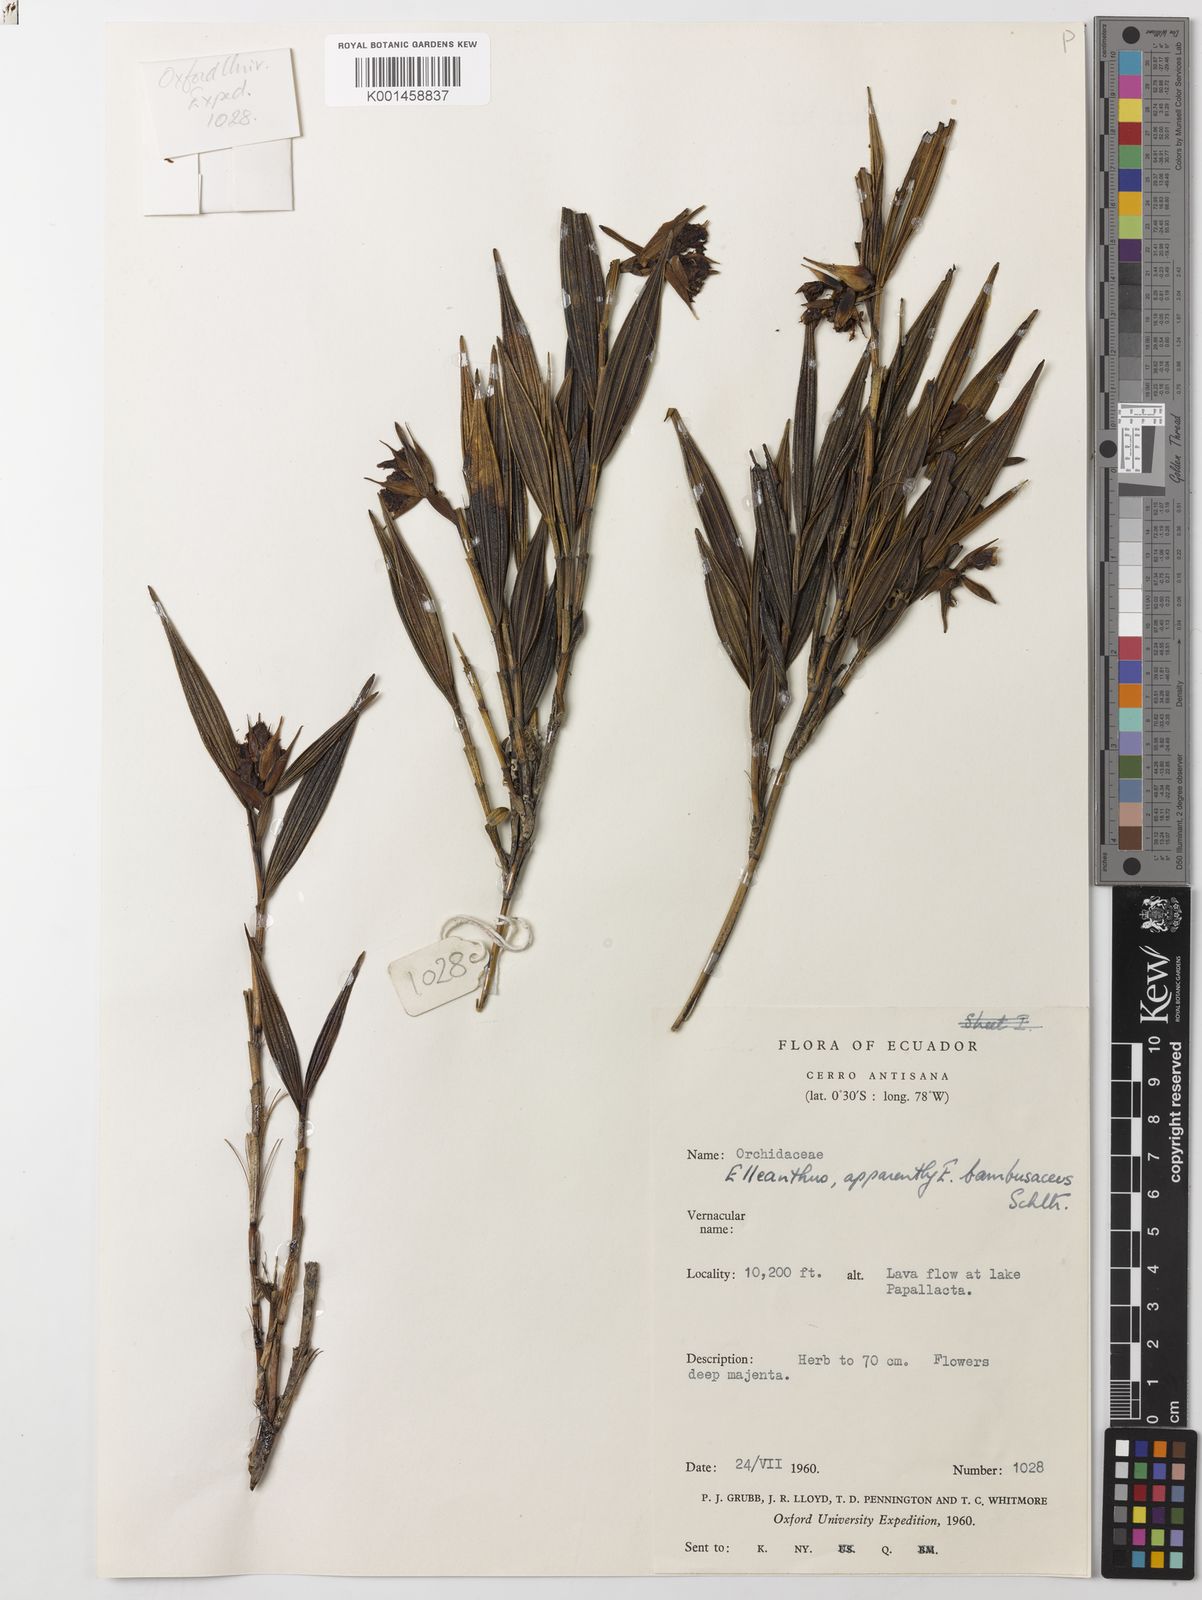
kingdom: Plantae
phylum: Tracheophyta
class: Liliopsida
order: Asparagales
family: Orchidaceae
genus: Elleanthus
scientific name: Elleanthus scopula
